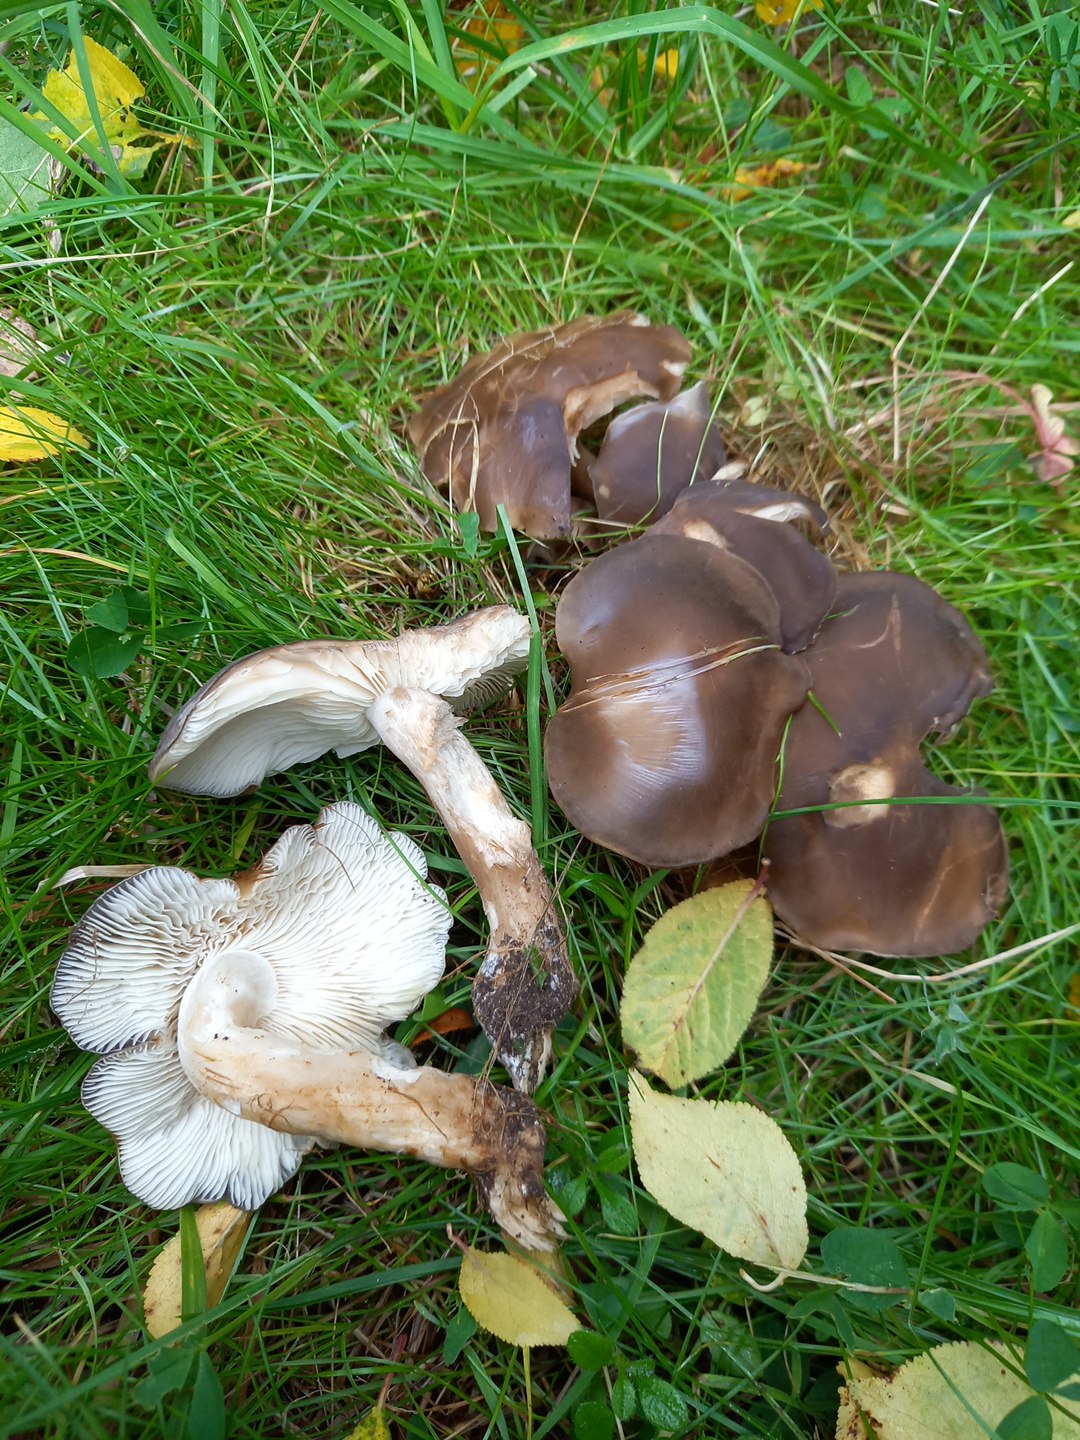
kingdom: Fungi
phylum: Basidiomycota
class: Agaricomycetes
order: Agaricales
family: Lyophyllaceae
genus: Lyophyllum
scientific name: Lyophyllum decastes
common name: røggrå gråblad
